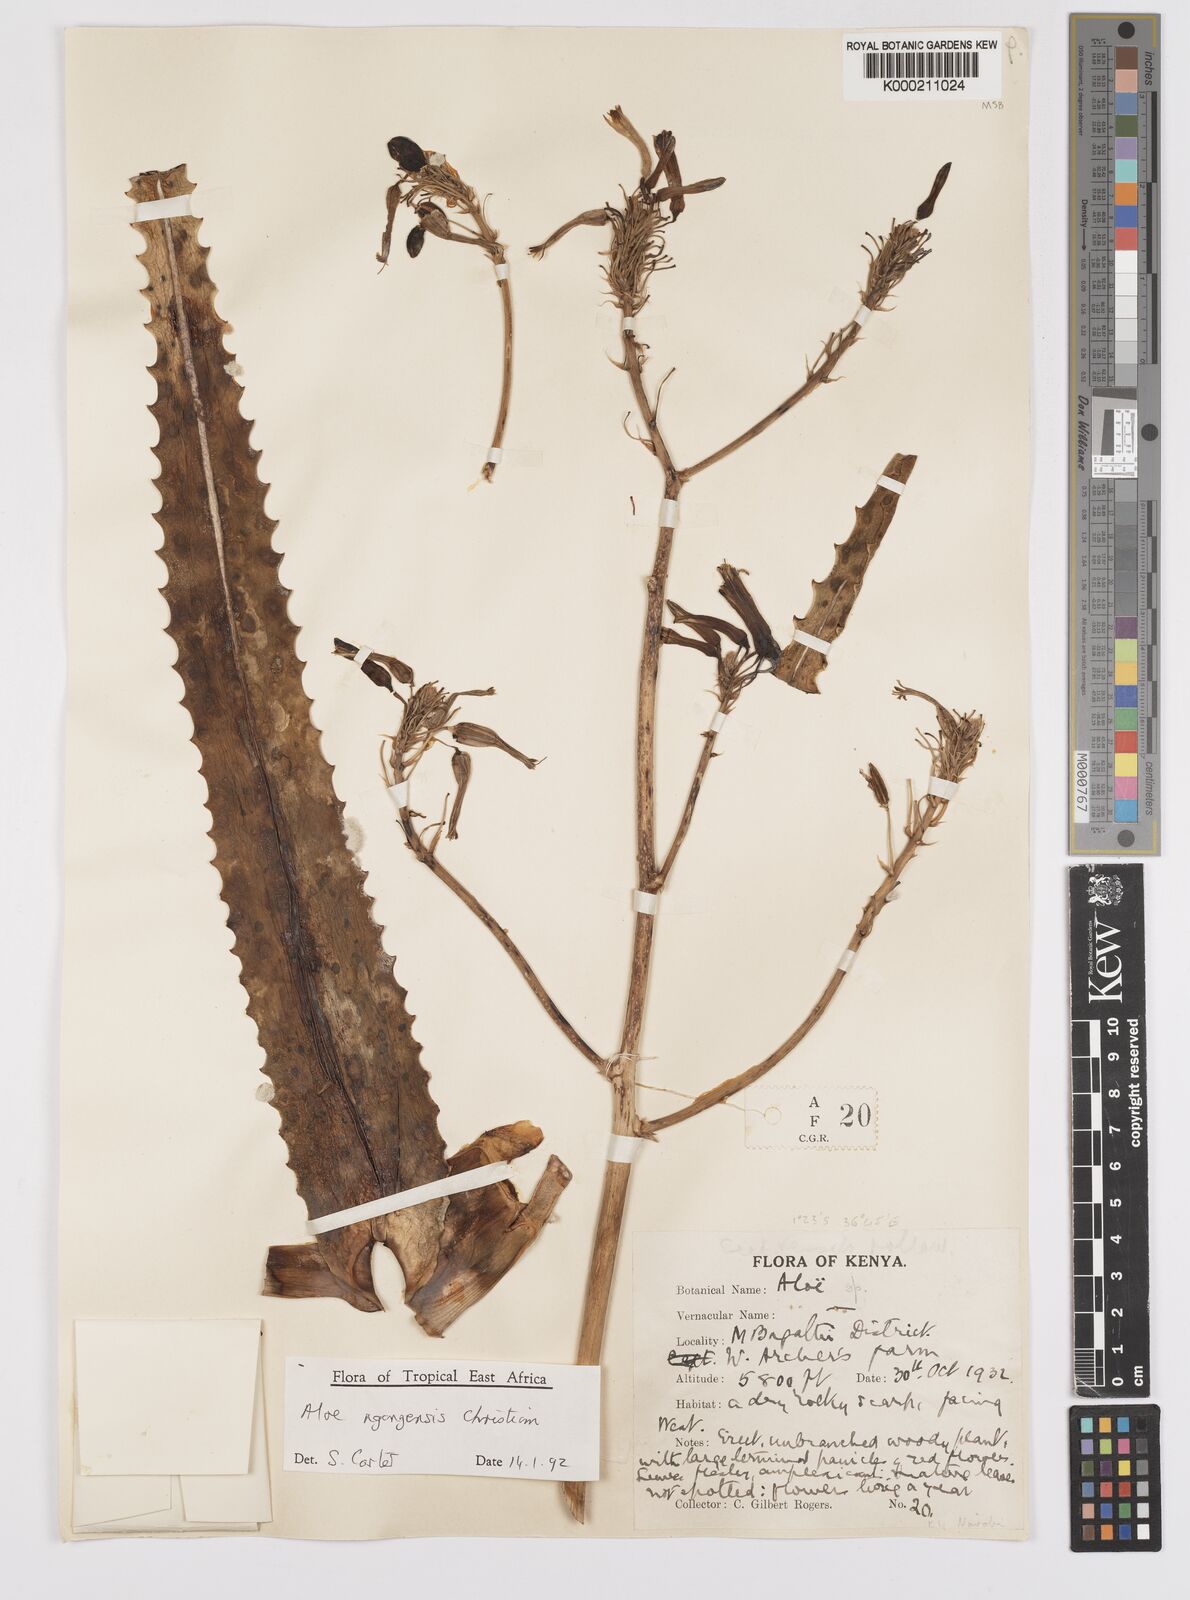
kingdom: Plantae
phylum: Tracheophyta
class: Liliopsida
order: Asparagales
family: Asphodelaceae
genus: Aloe
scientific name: Aloe ngongensis
